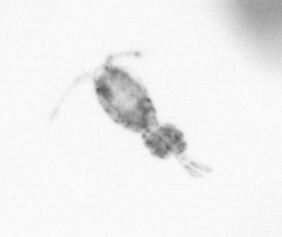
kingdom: Animalia
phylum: Arthropoda
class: Copepoda
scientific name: Copepoda
